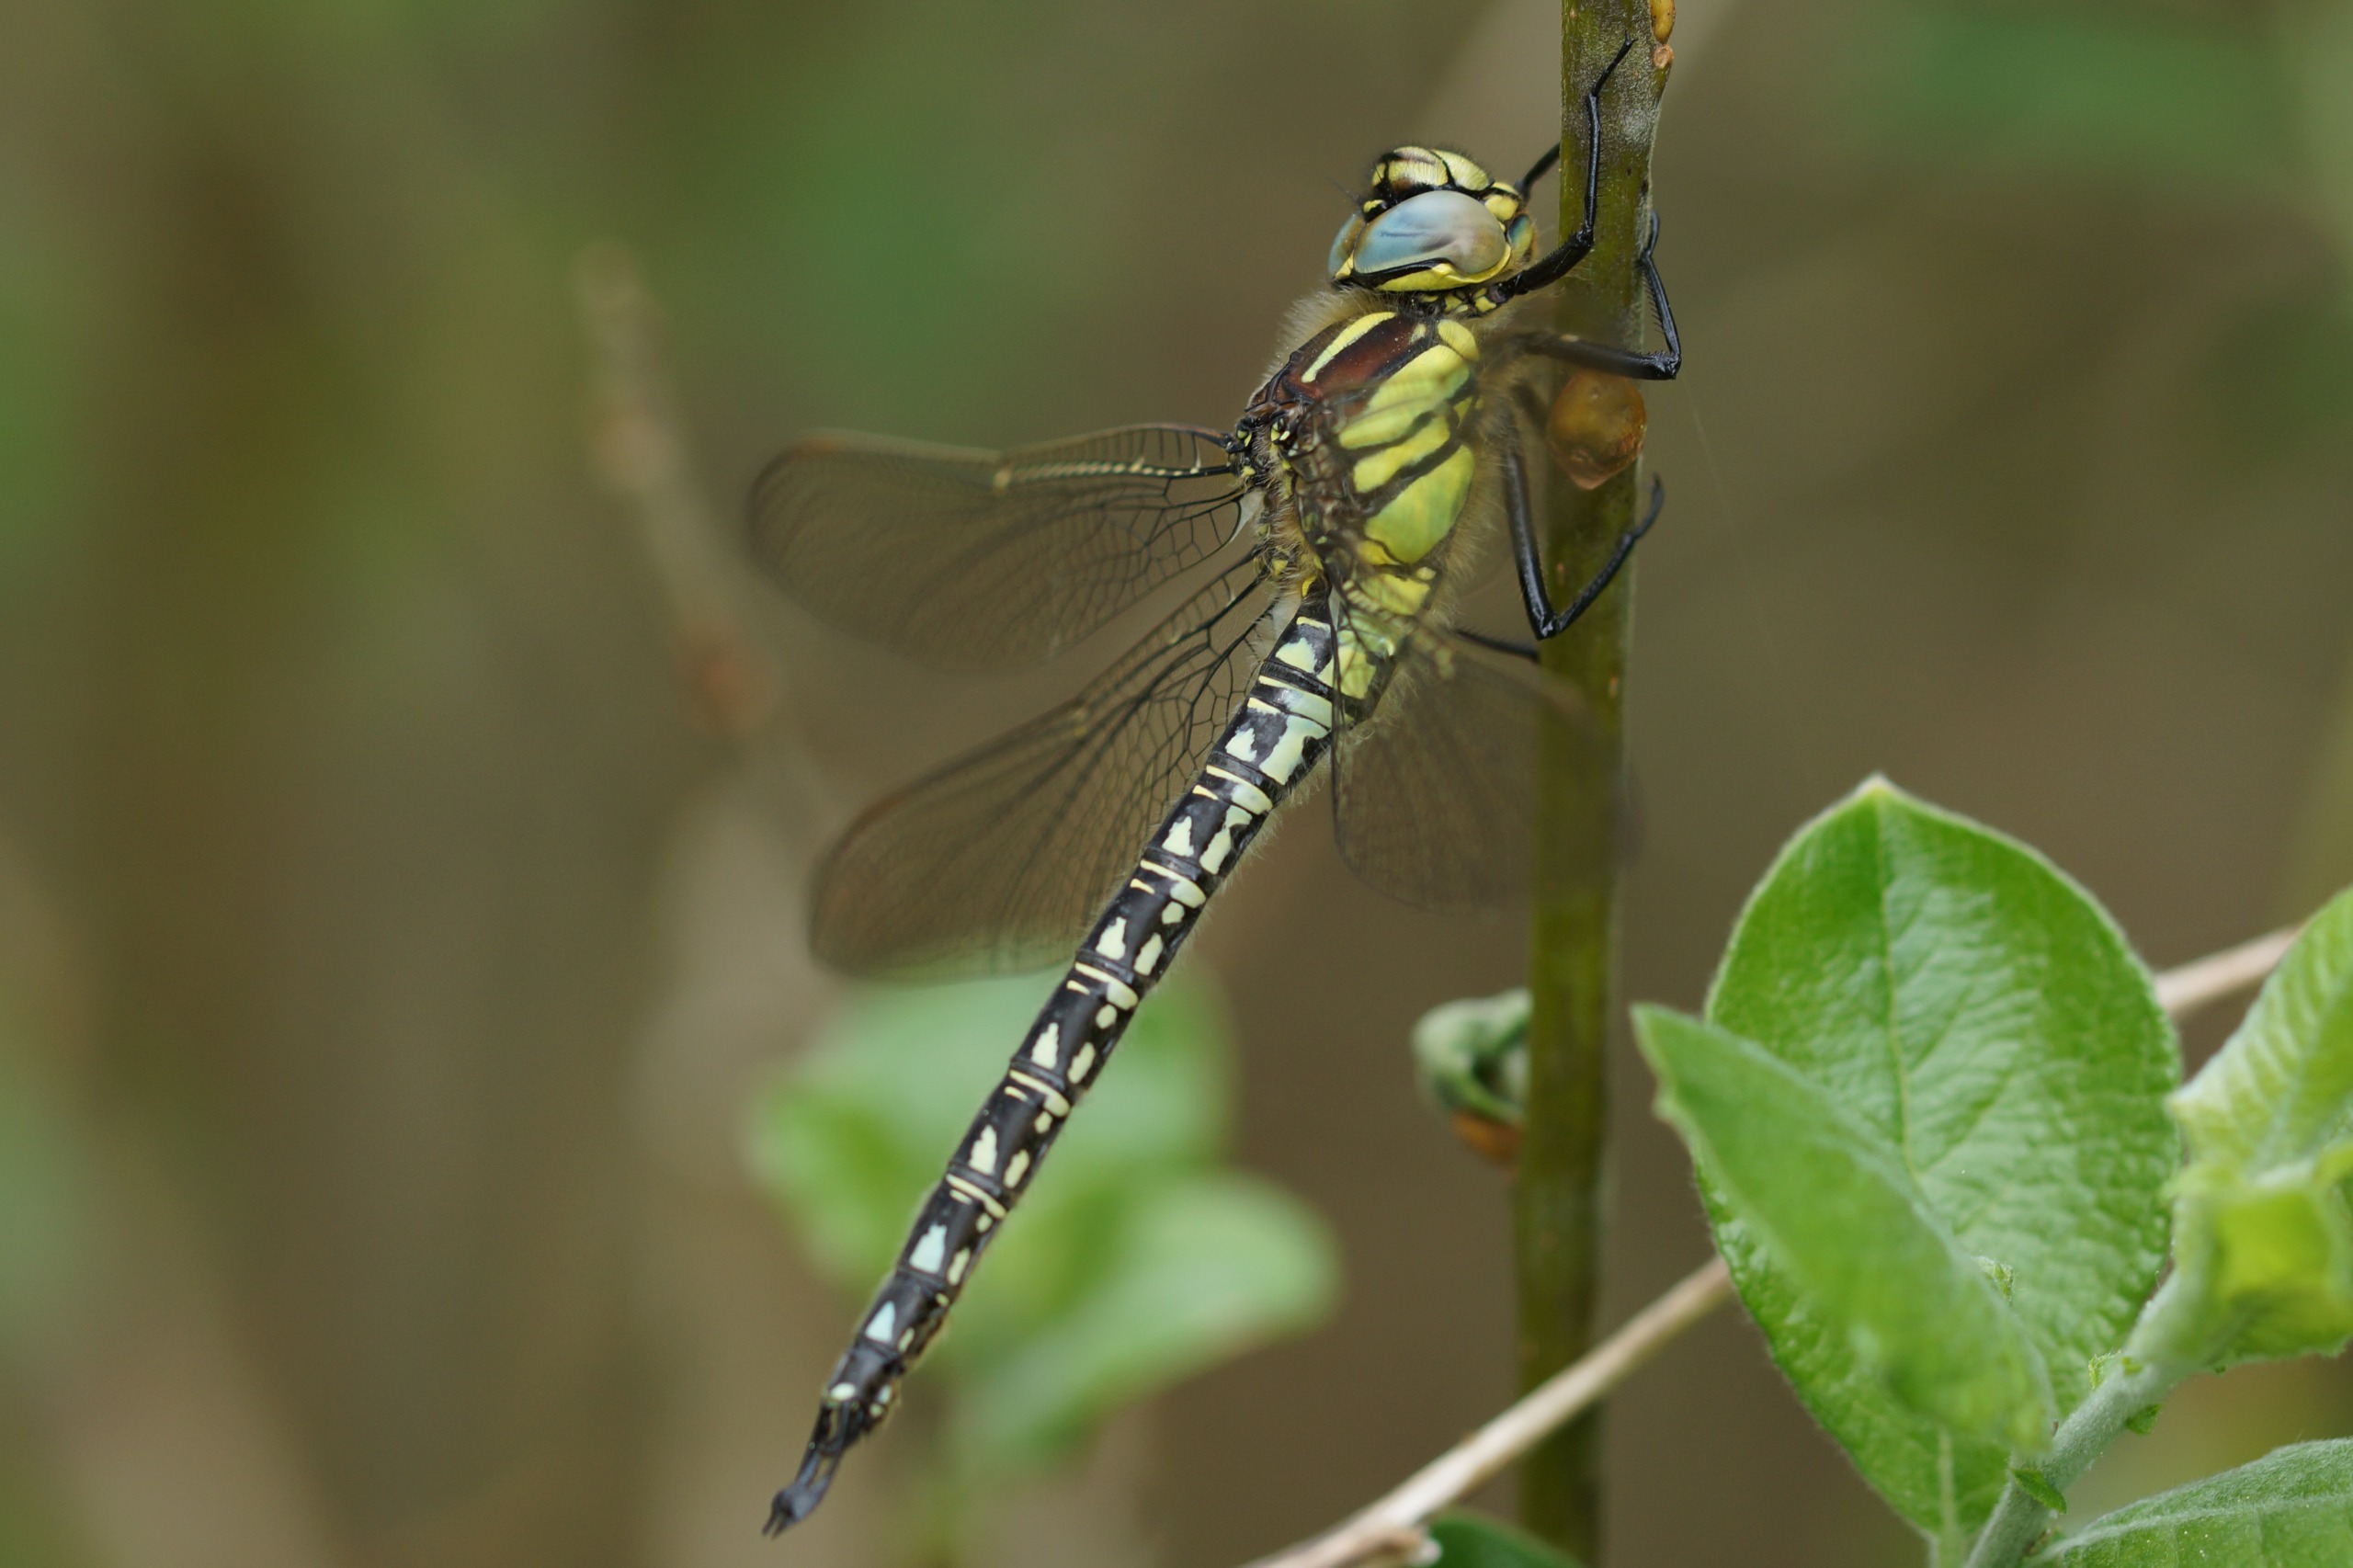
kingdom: Animalia
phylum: Arthropoda
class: Insecta
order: Odonata
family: Aeshnidae
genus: Brachytron
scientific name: Brachytron pratense
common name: Håret mosaikguldsmed
